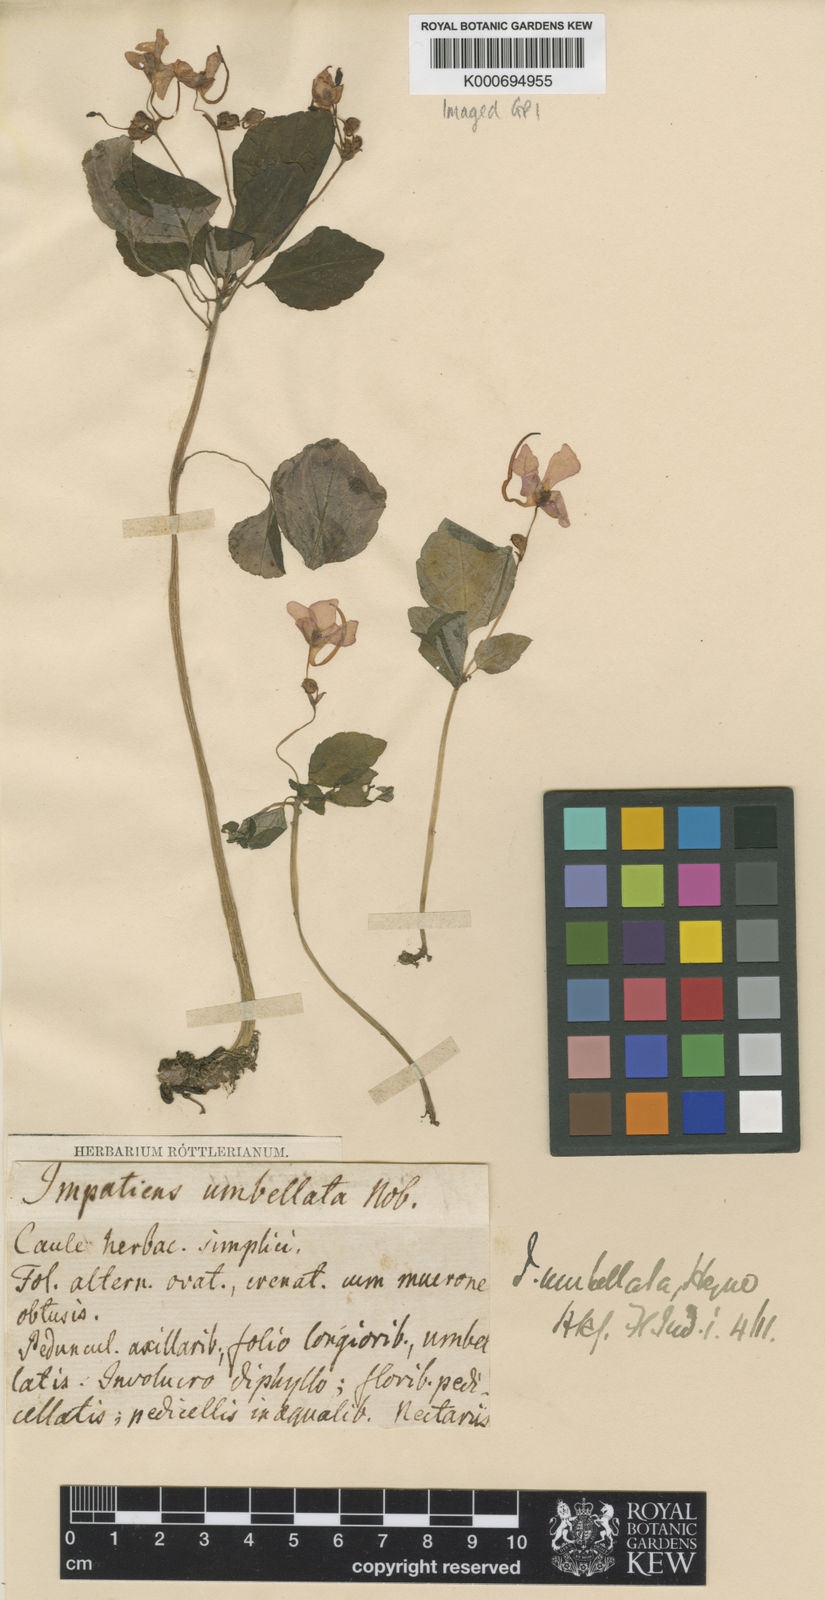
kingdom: Plantae
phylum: Tracheophyta
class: Magnoliopsida
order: Ericales
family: Balsaminaceae
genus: Impatiens
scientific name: Impatiens umbellata
